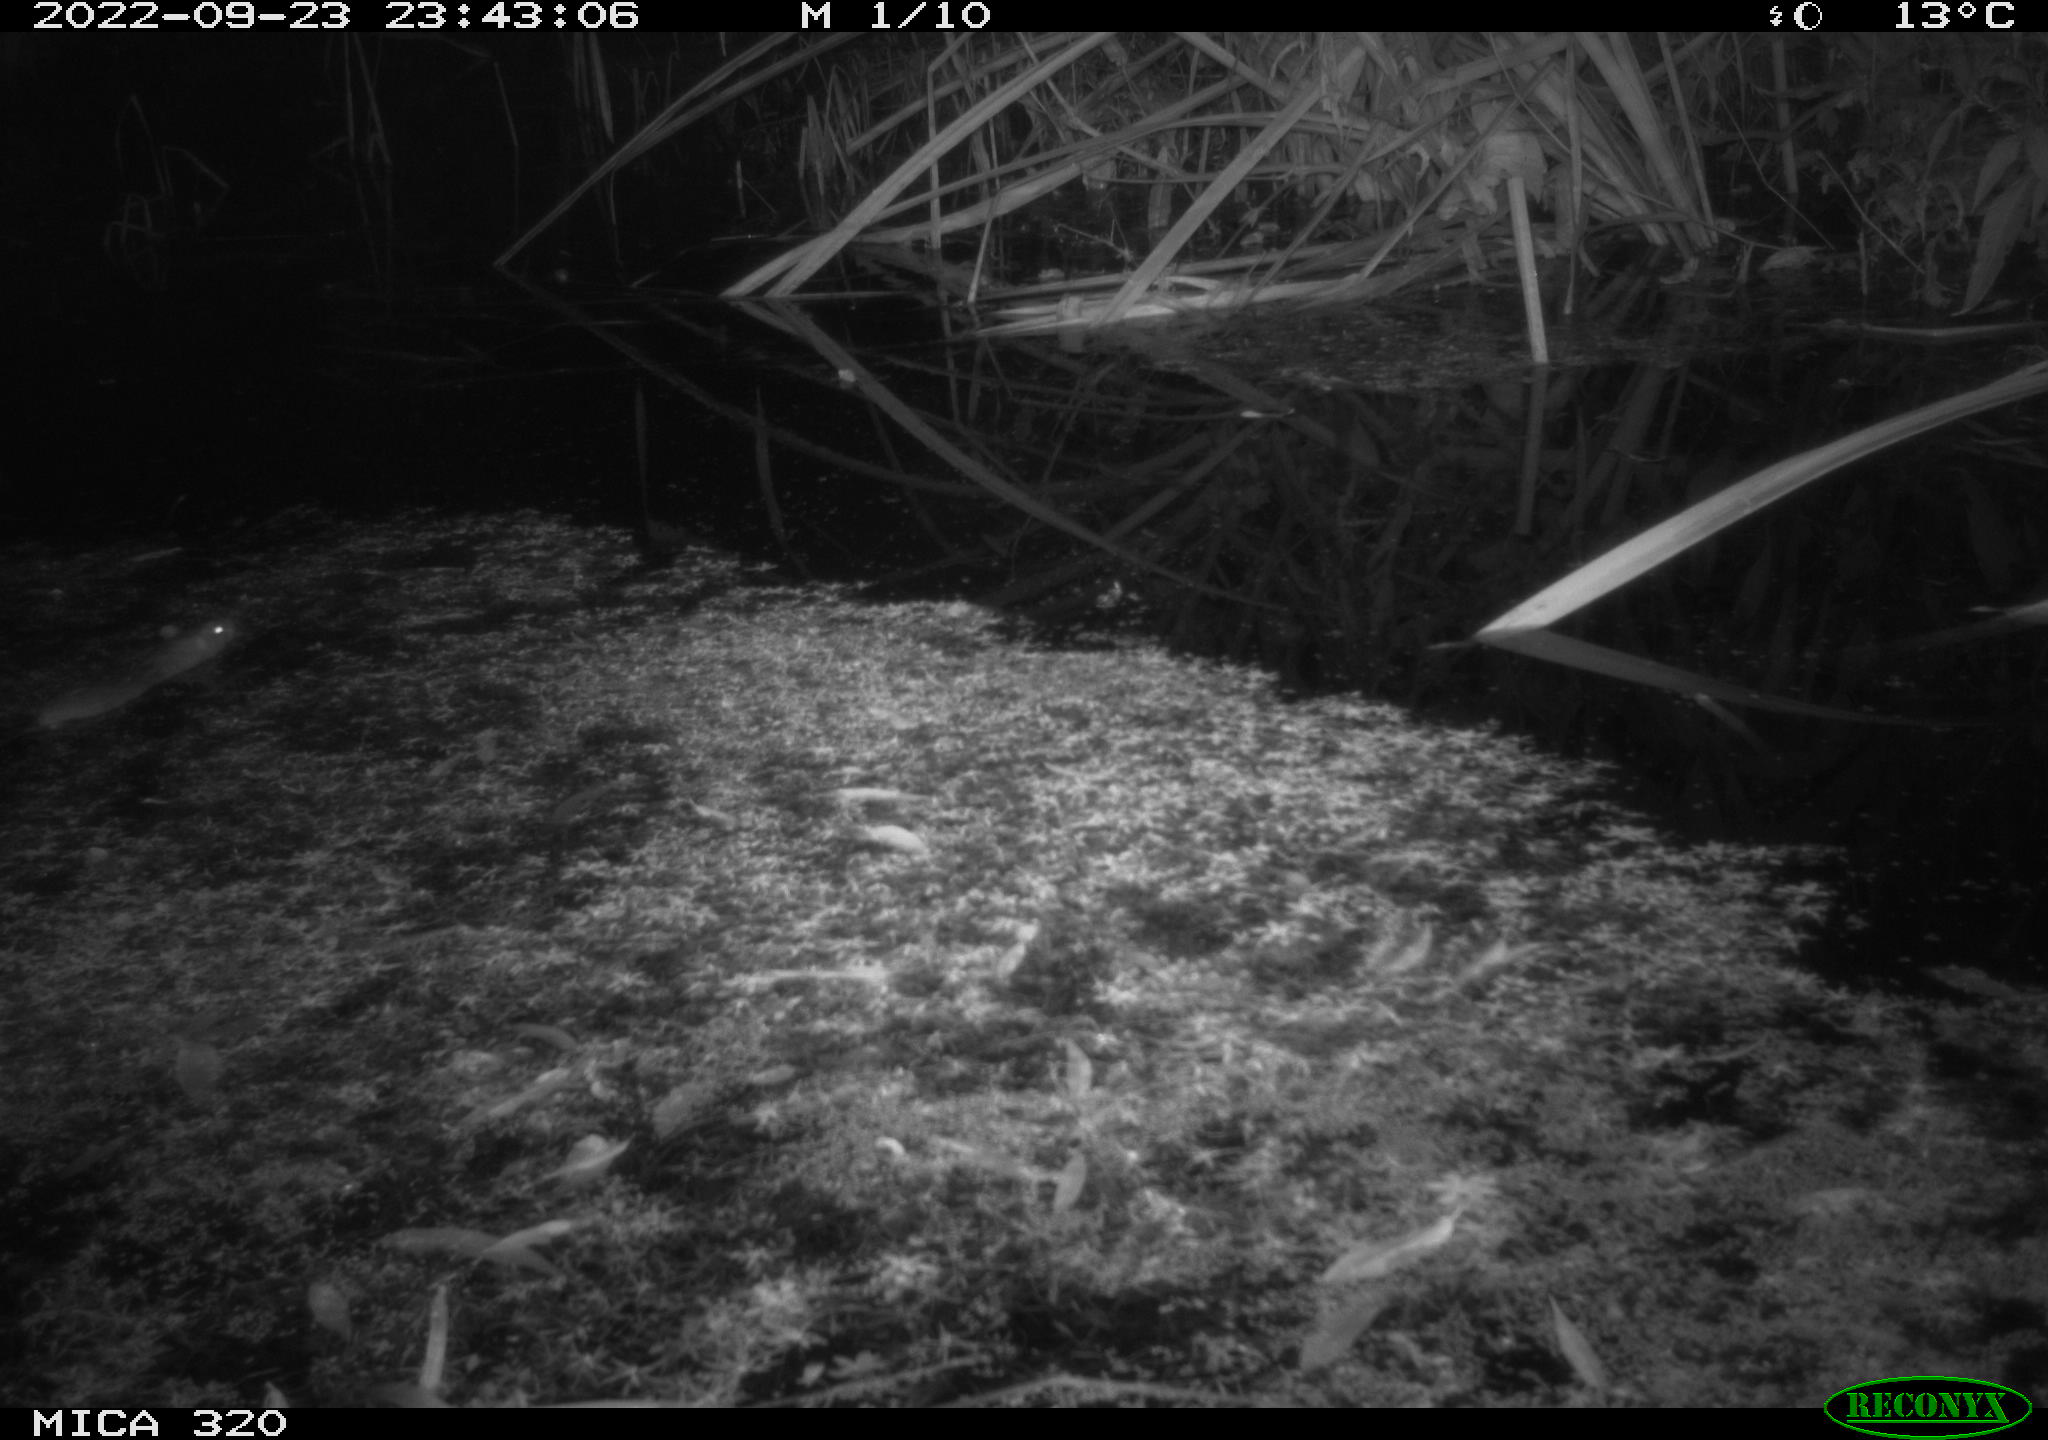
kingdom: Animalia
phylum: Chordata
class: Mammalia
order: Rodentia
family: Muridae
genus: Rattus
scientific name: Rattus norvegicus
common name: Brown rat
